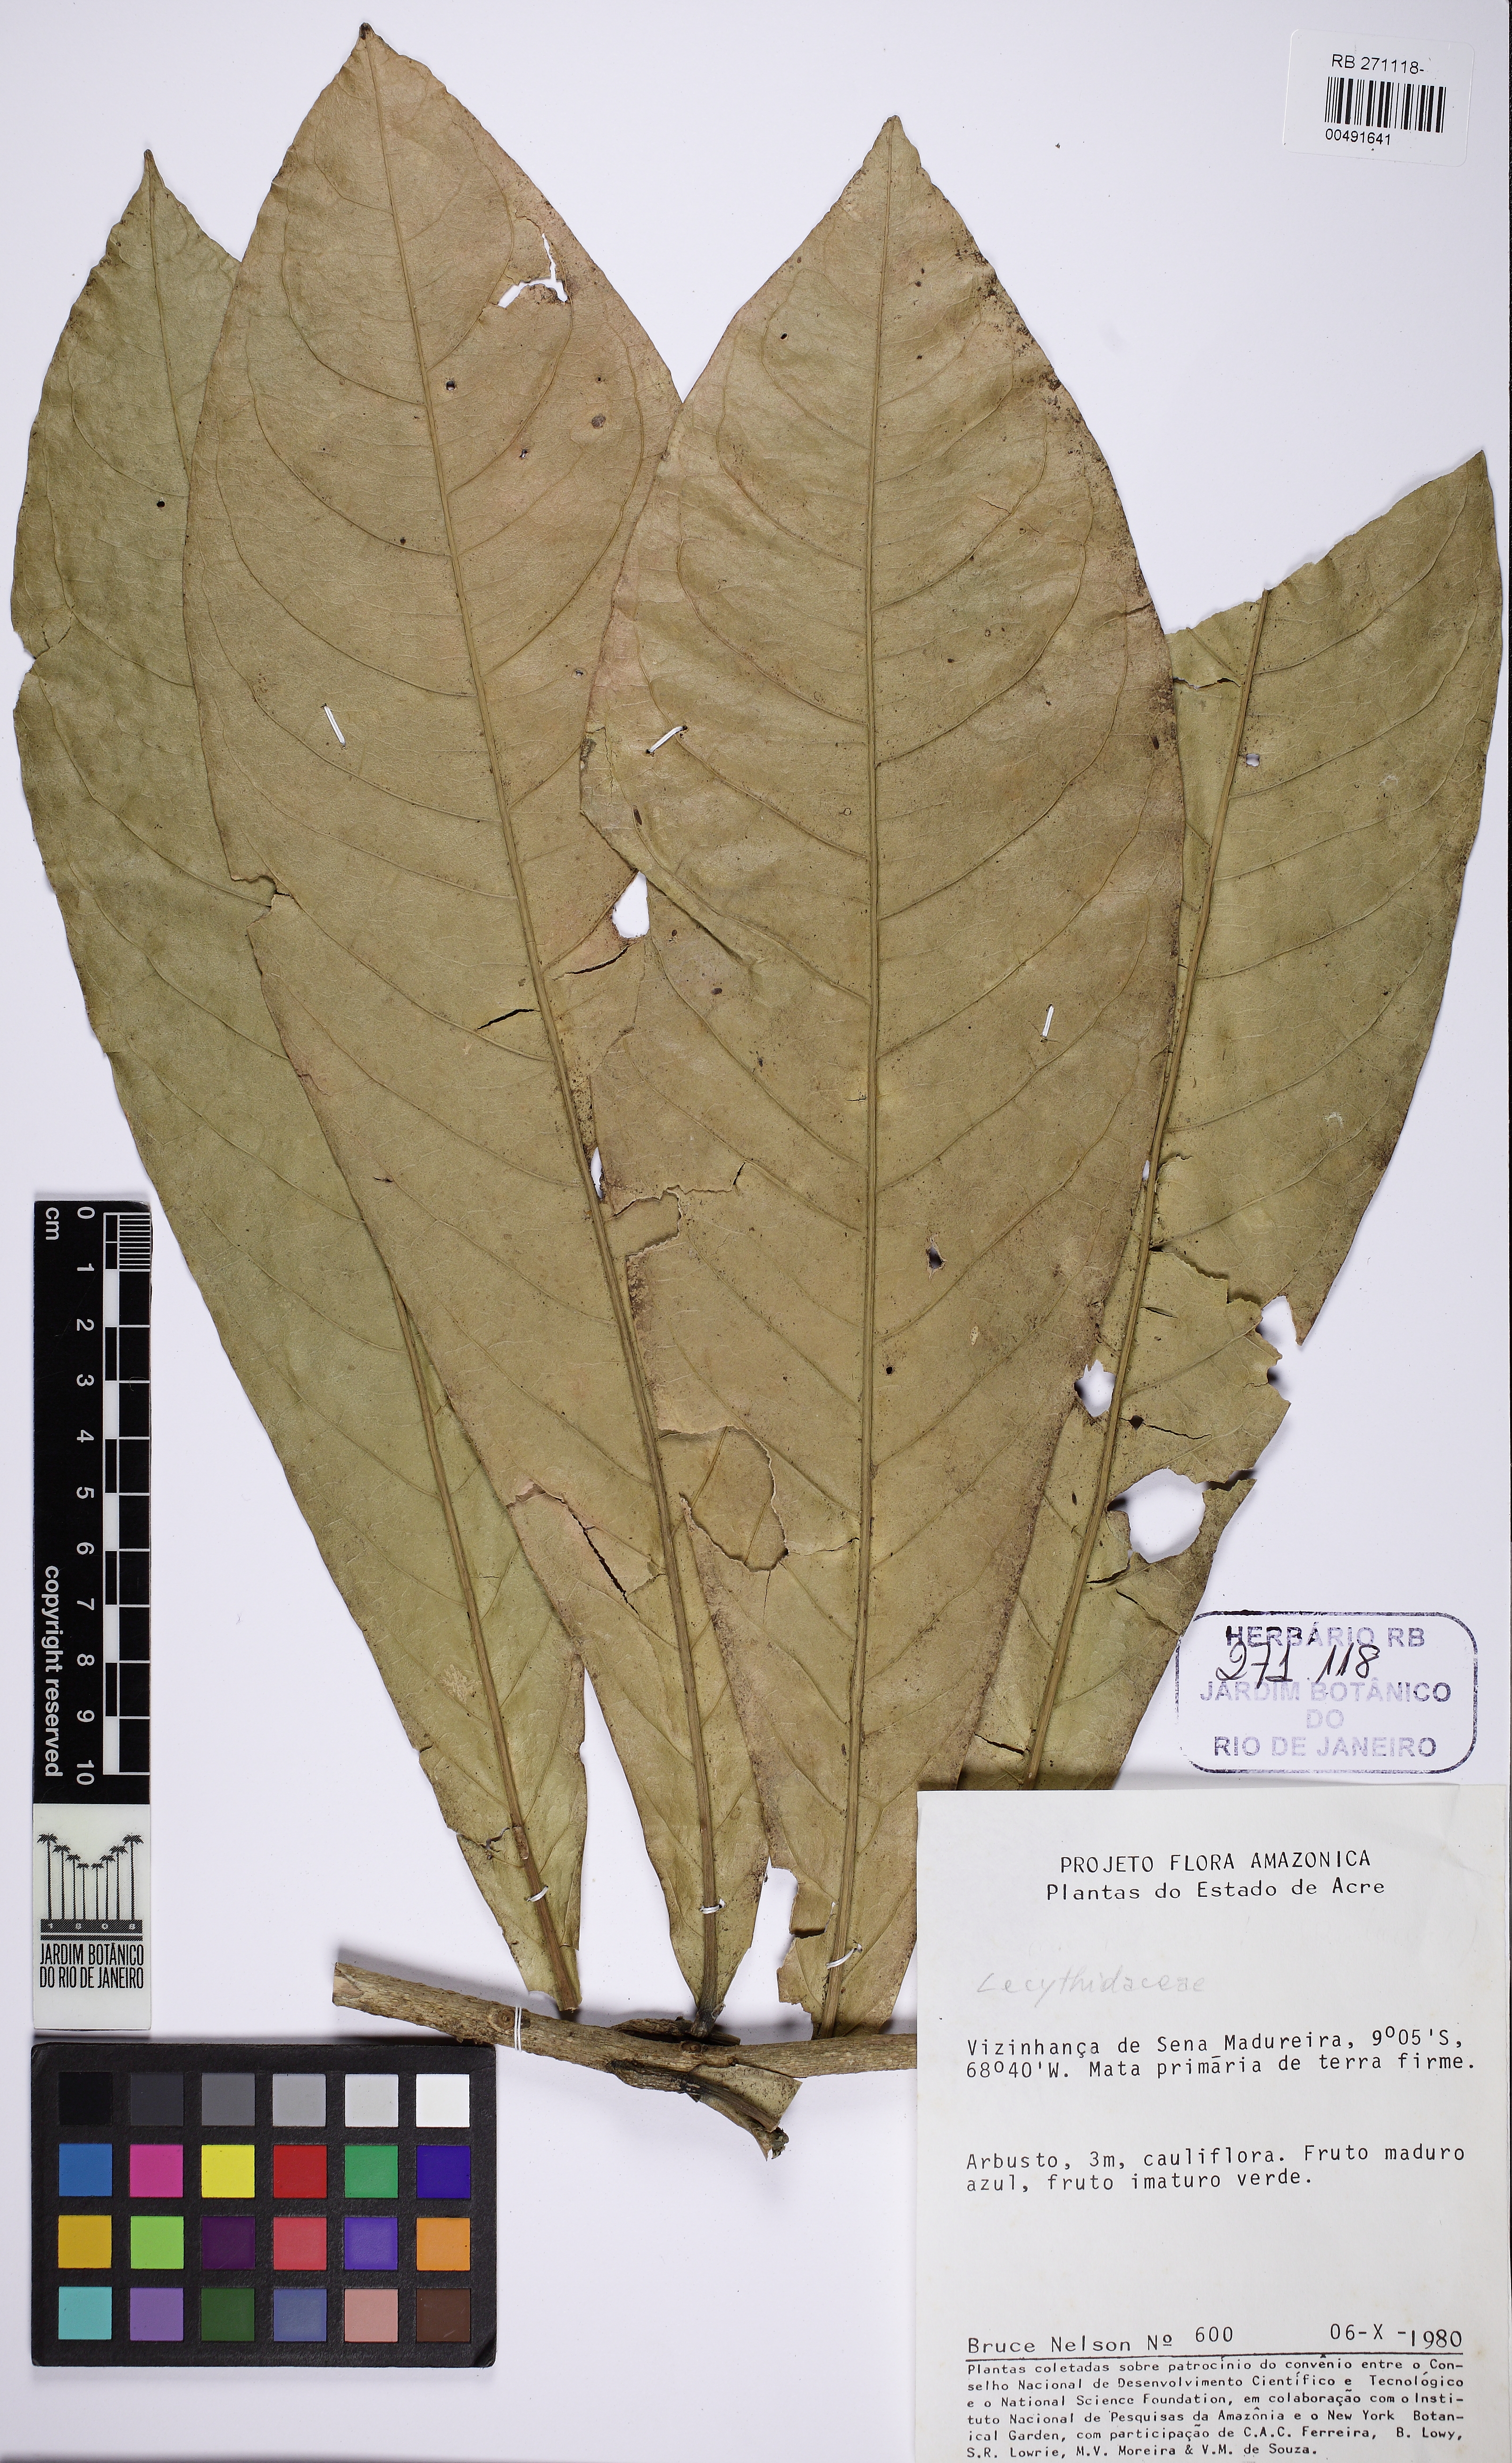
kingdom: Plantae
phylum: Tracheophyta
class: Magnoliopsida
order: Ericales
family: Lecythidaceae
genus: Gustavia
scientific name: Gustavia
